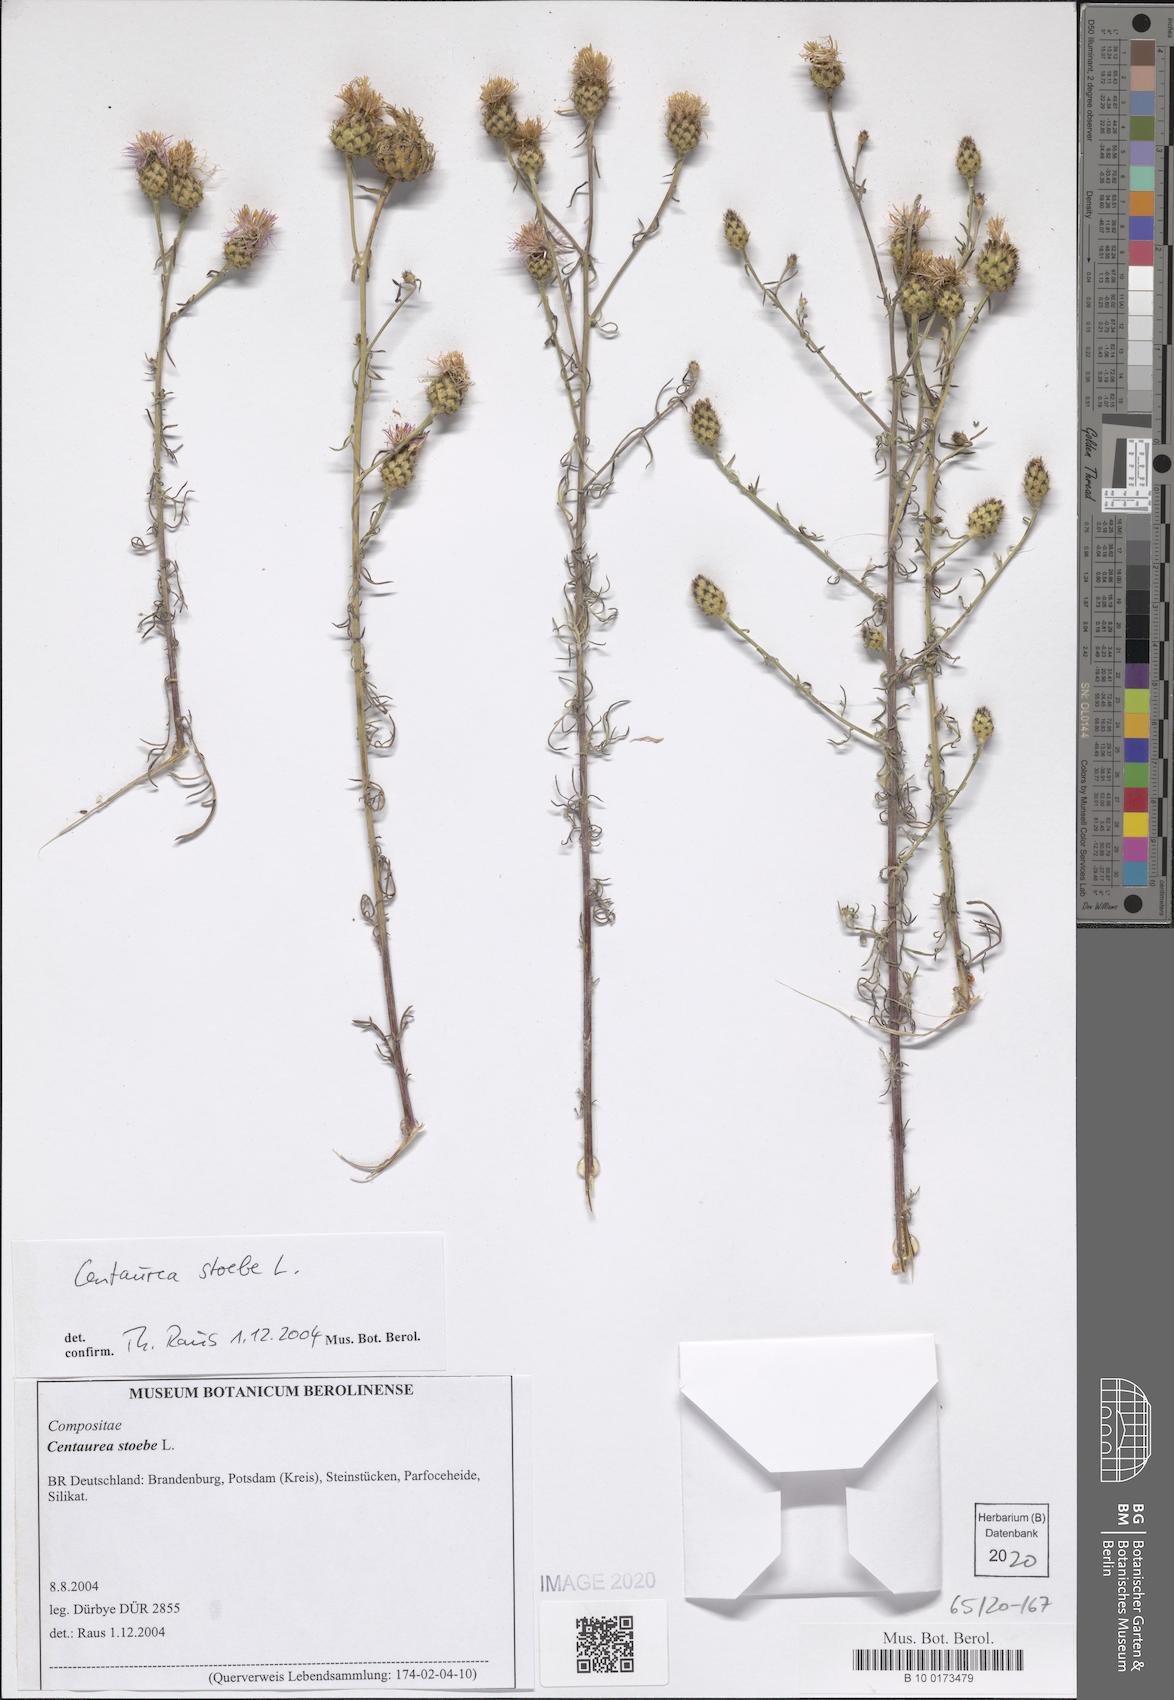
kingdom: Plantae
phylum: Tracheophyta
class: Magnoliopsida
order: Asterales
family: Asteraceae
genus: Centaurea
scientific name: Centaurea stoebe
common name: Spotted knapweed
